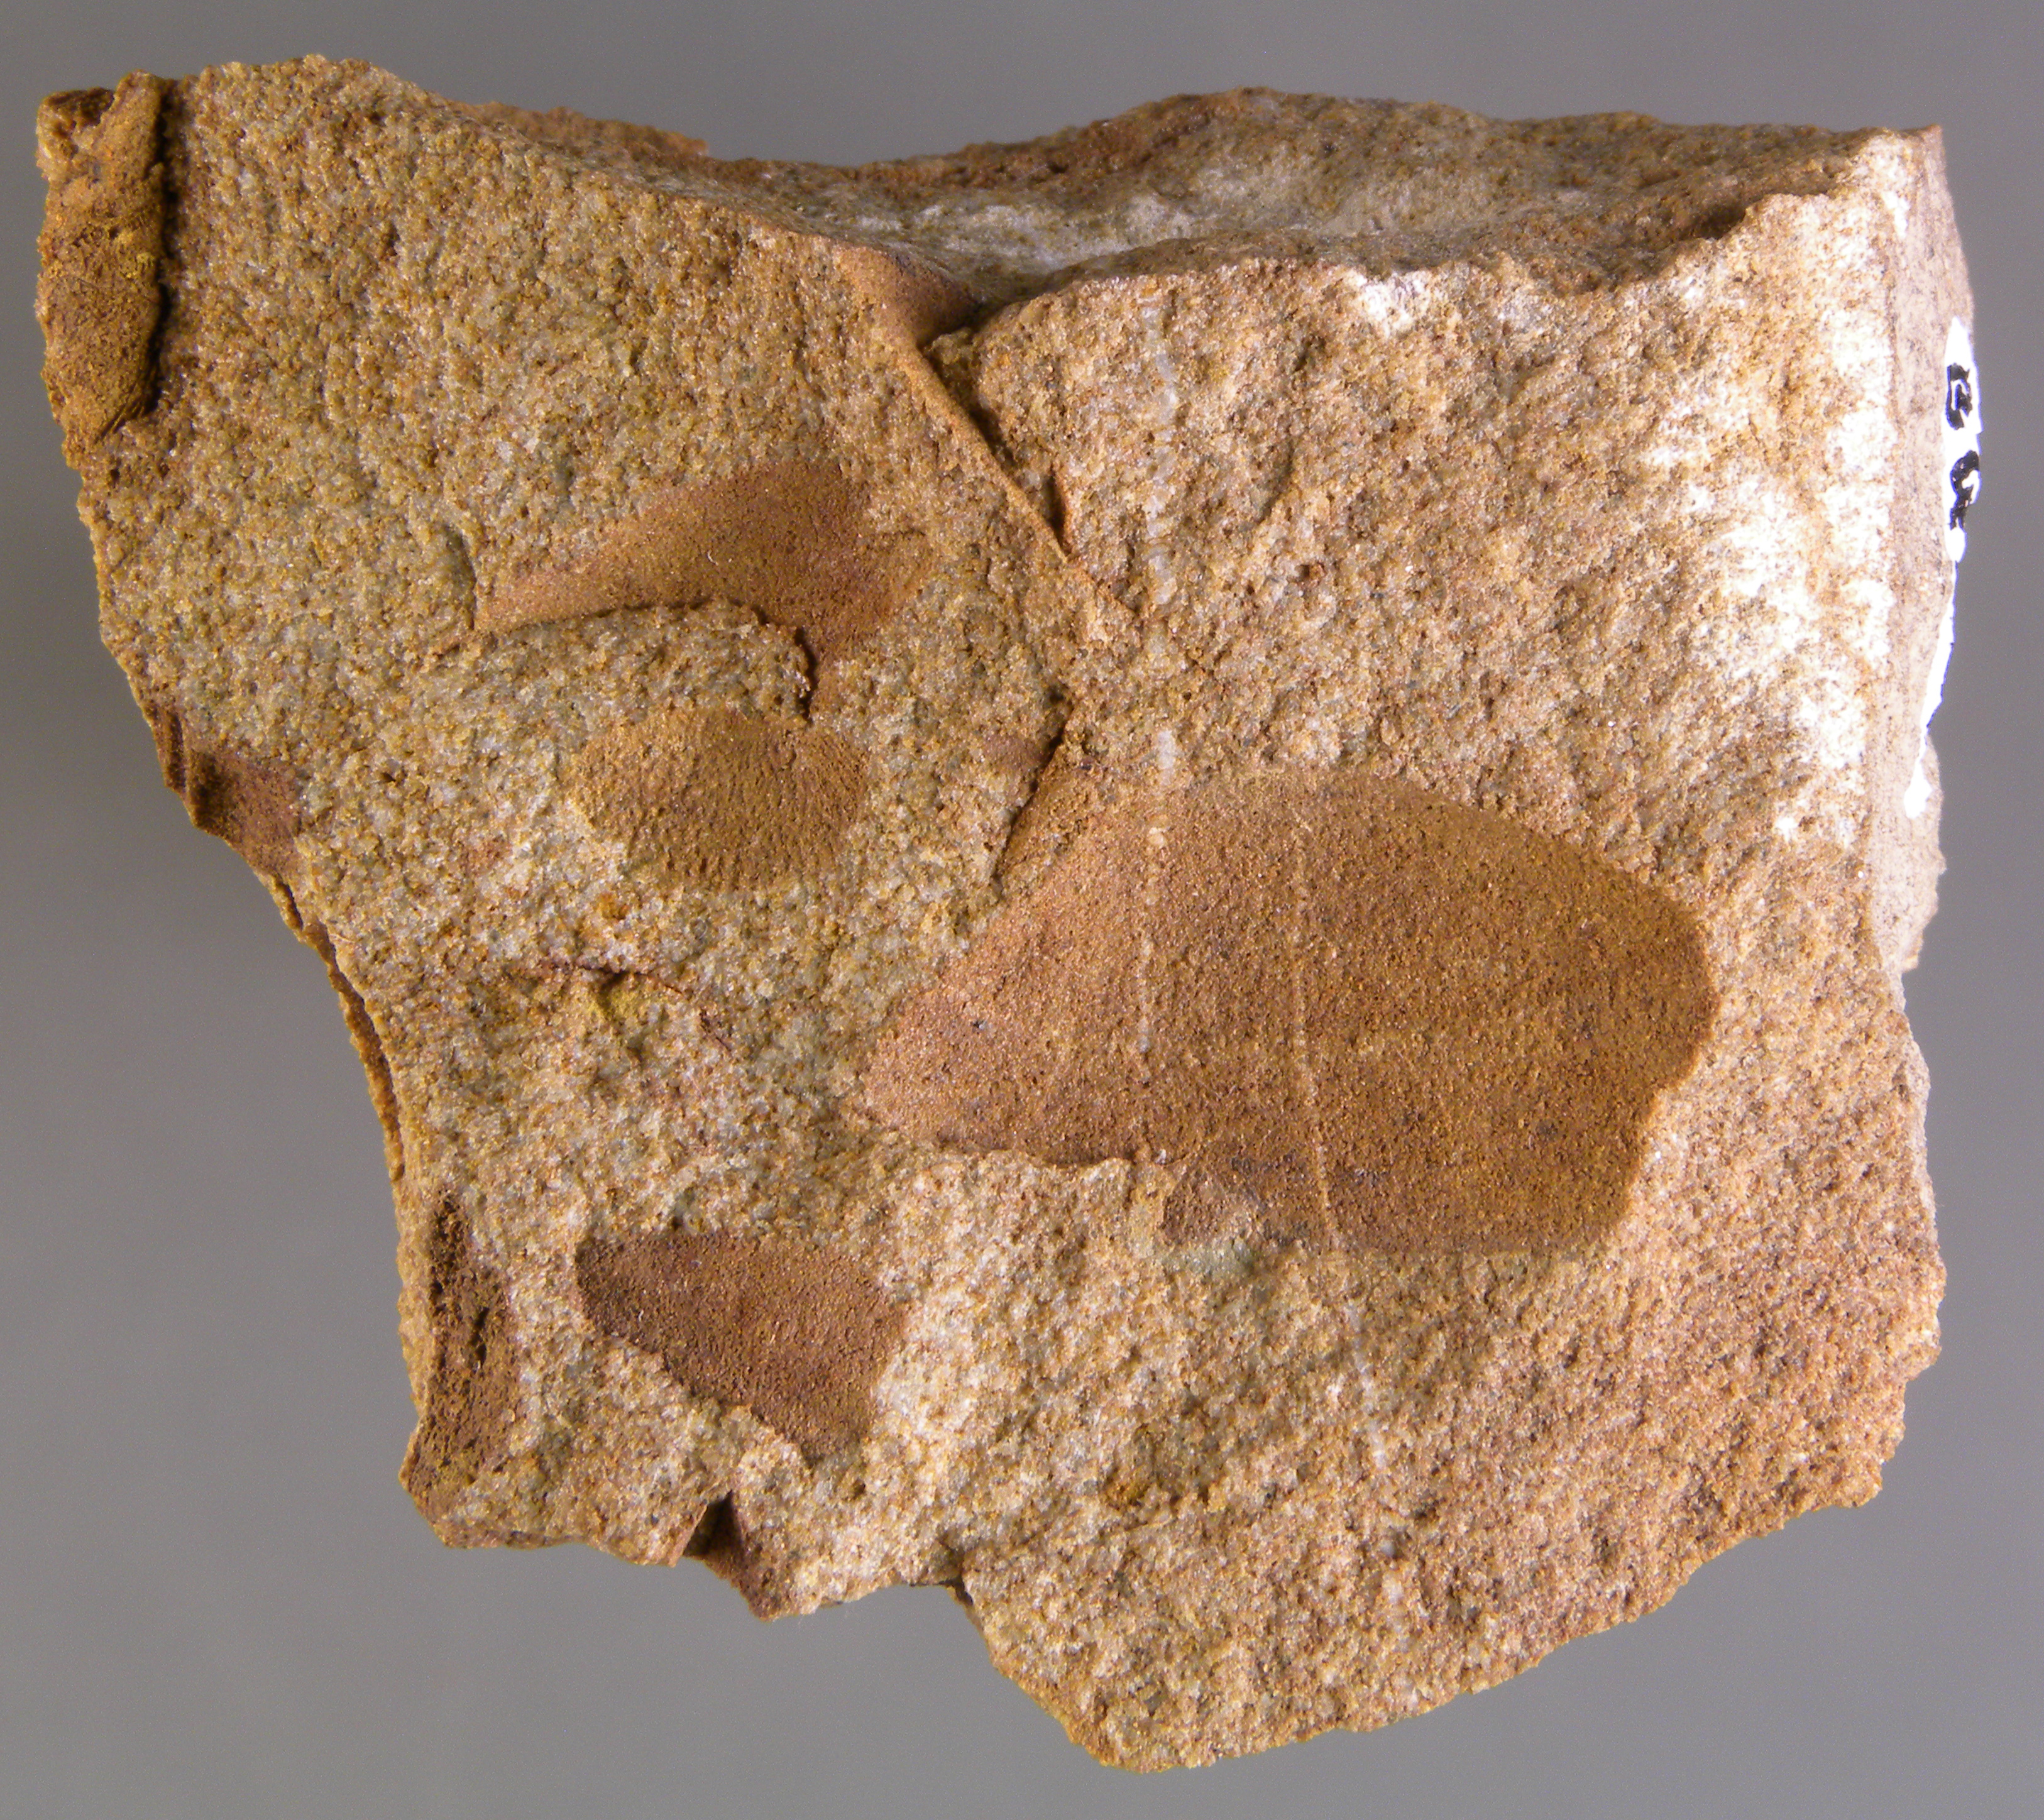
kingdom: Animalia
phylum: Mollusca
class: Bivalvia
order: Nuculanida
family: Nuculanidae
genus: Phestia
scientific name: Phestia
